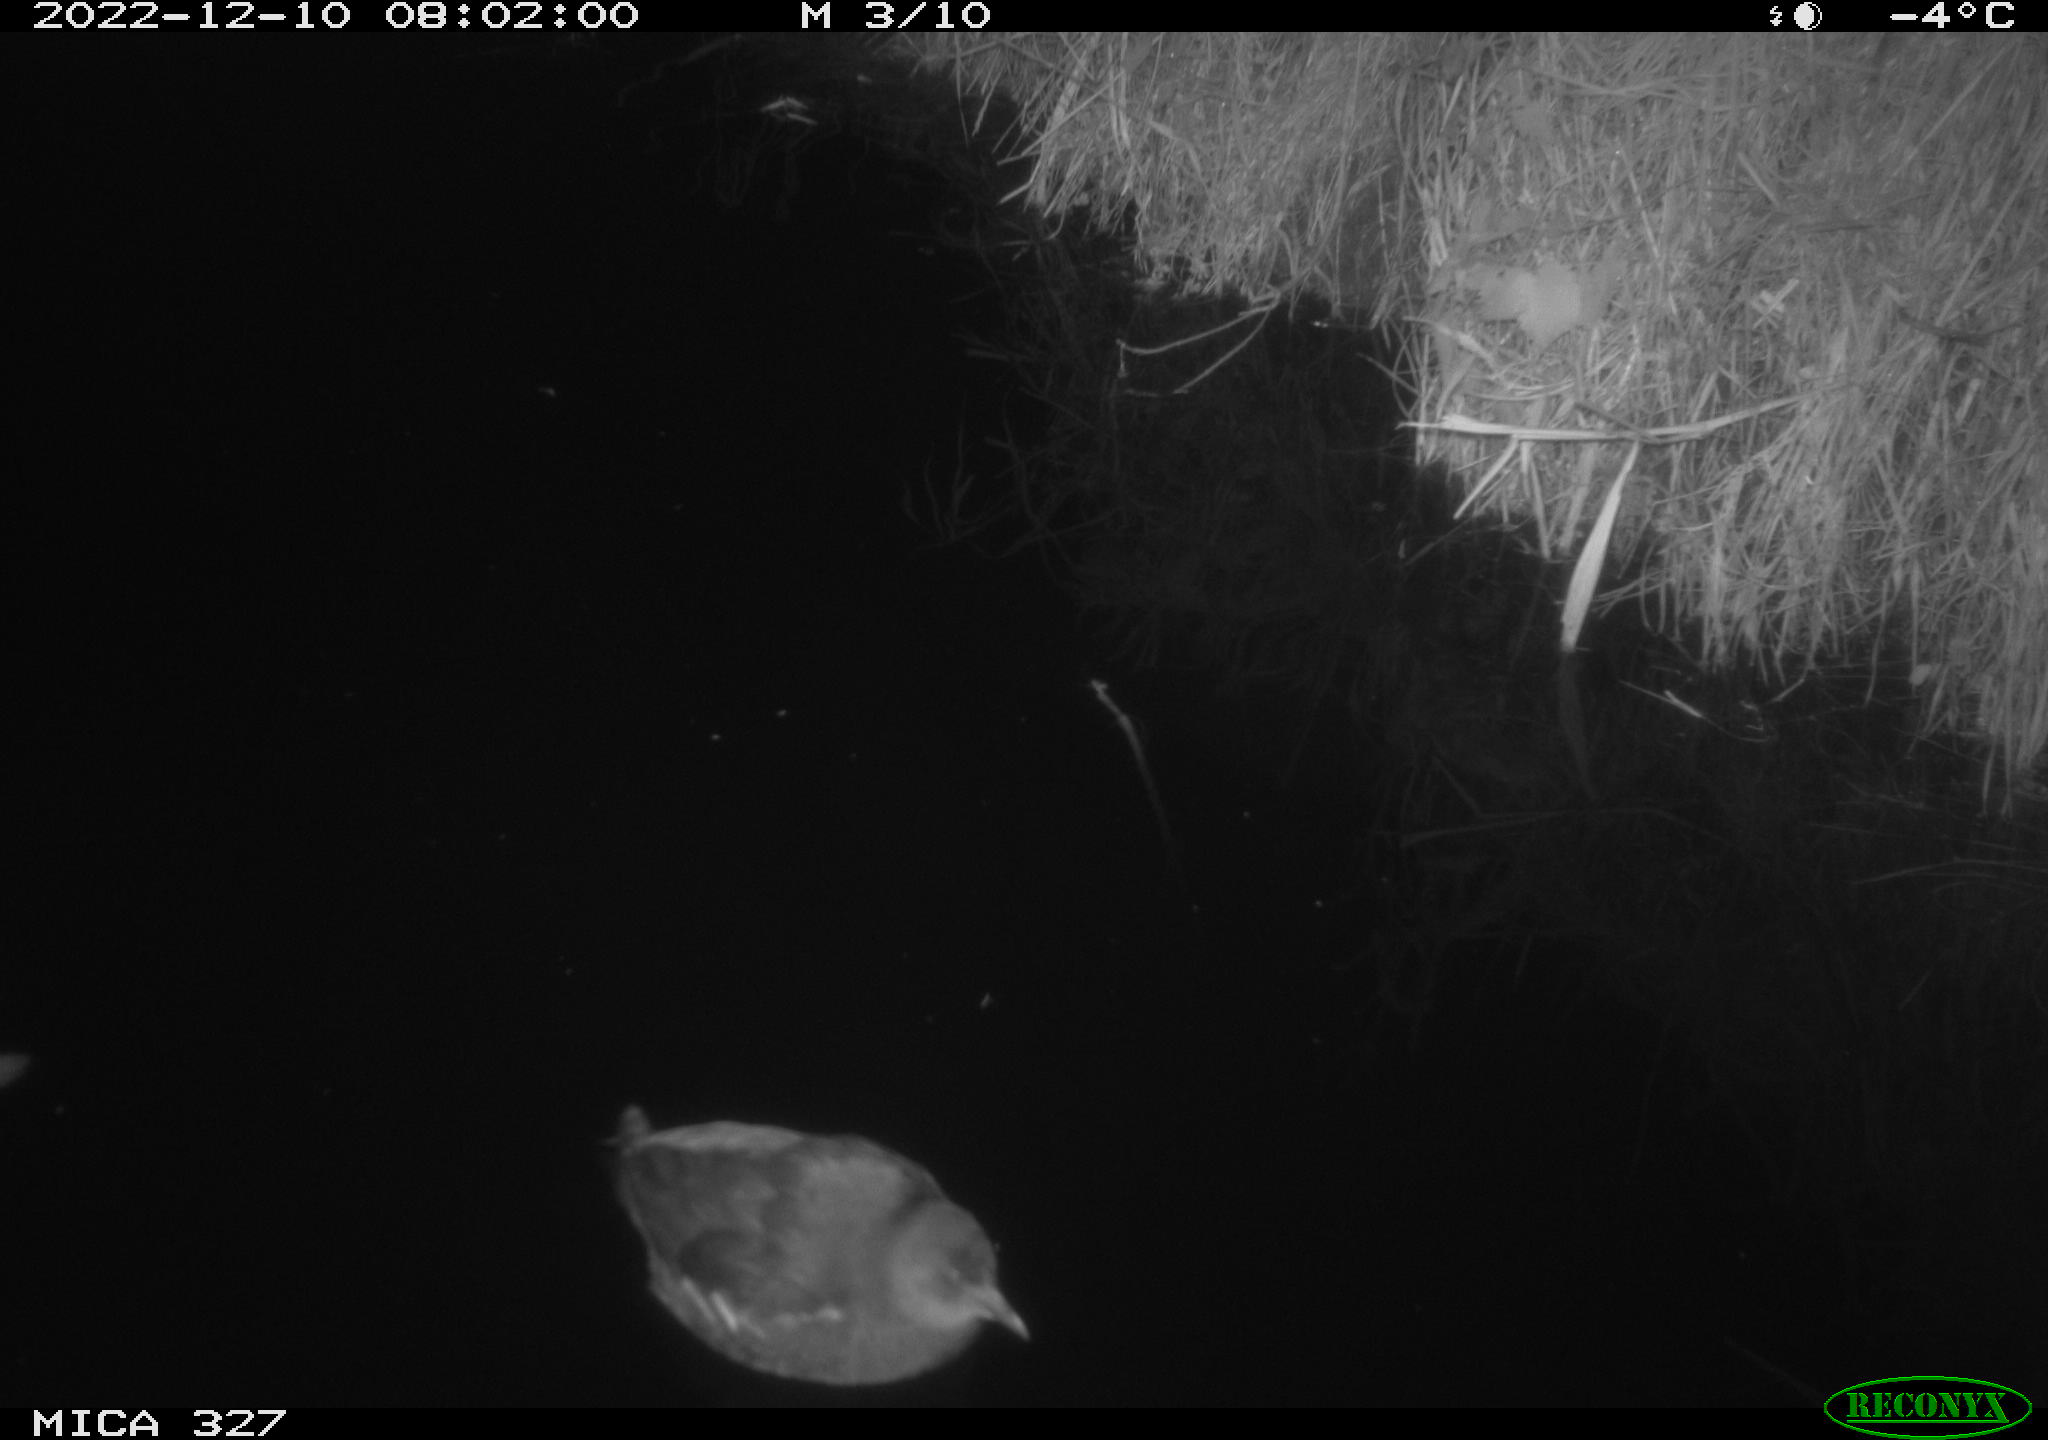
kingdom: Animalia
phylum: Chordata
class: Aves
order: Gruiformes
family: Rallidae
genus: Gallinula
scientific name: Gallinula chloropus
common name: Common moorhen
